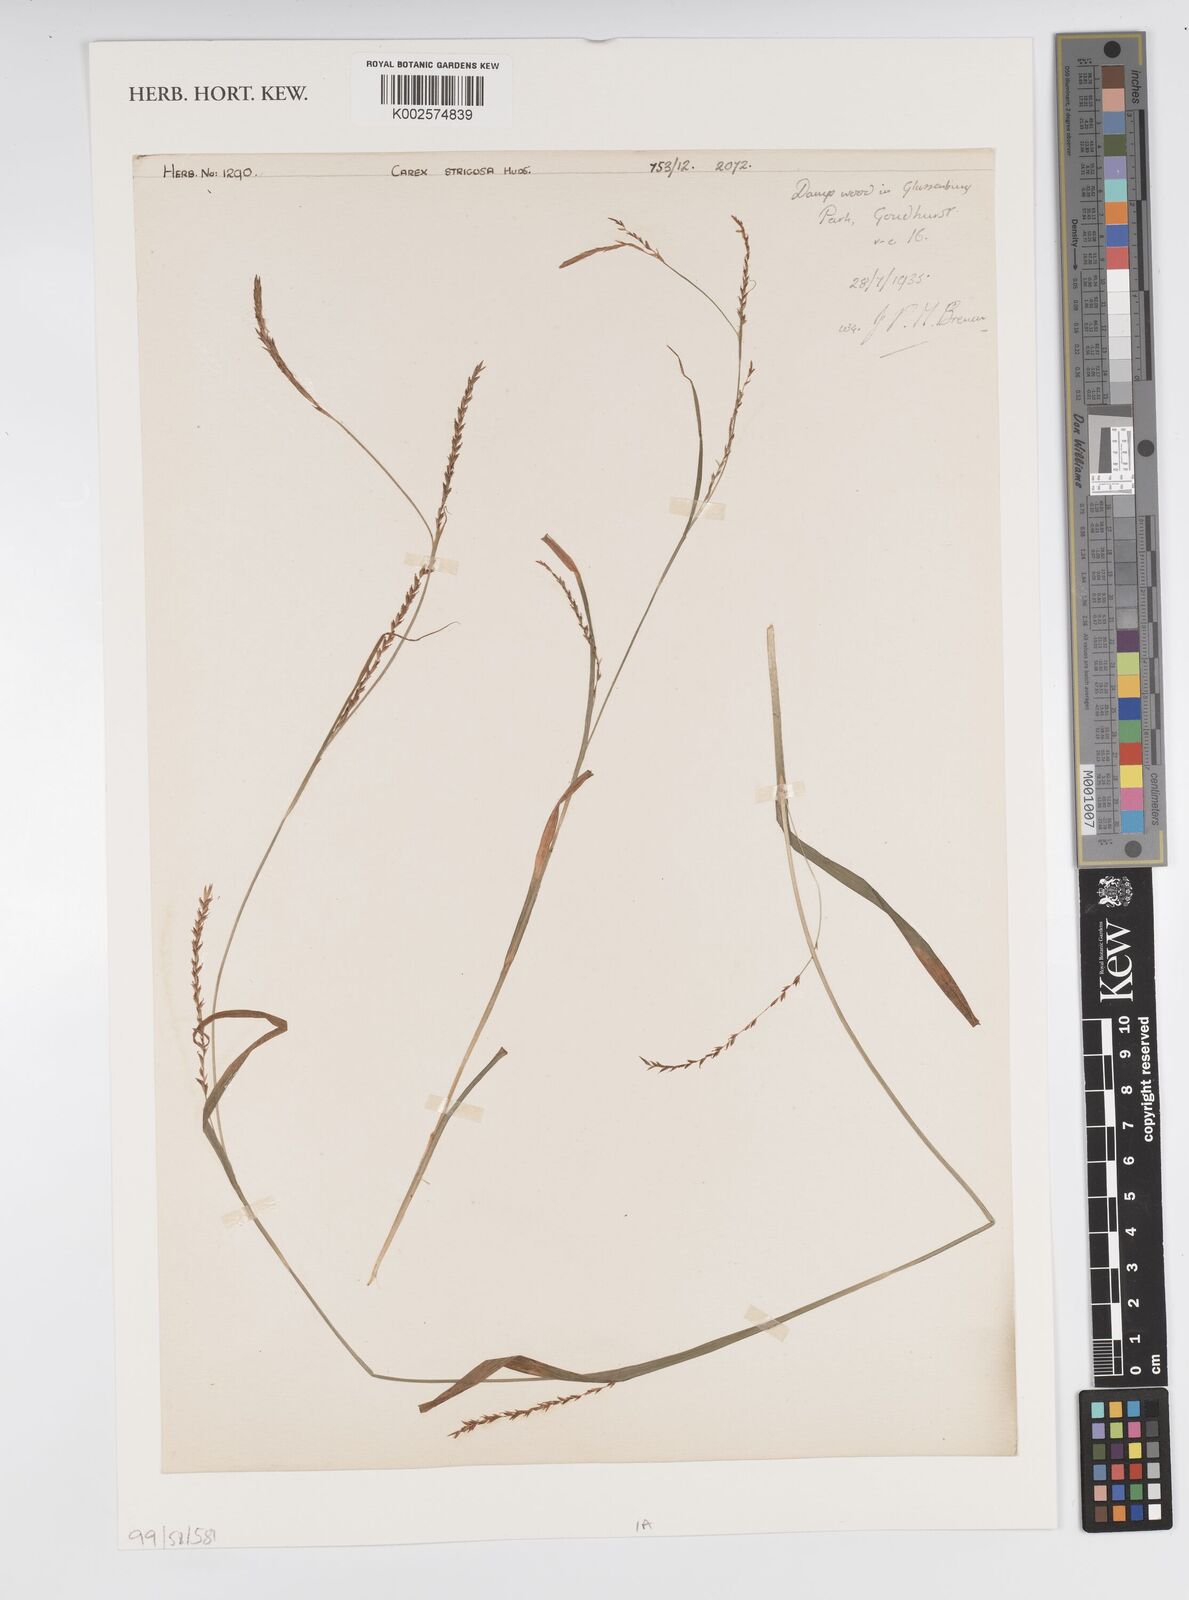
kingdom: Plantae
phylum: Tracheophyta
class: Liliopsida
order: Poales
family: Cyperaceae
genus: Carex
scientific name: Carex strigosa
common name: Thin-spiked wood-sedge
